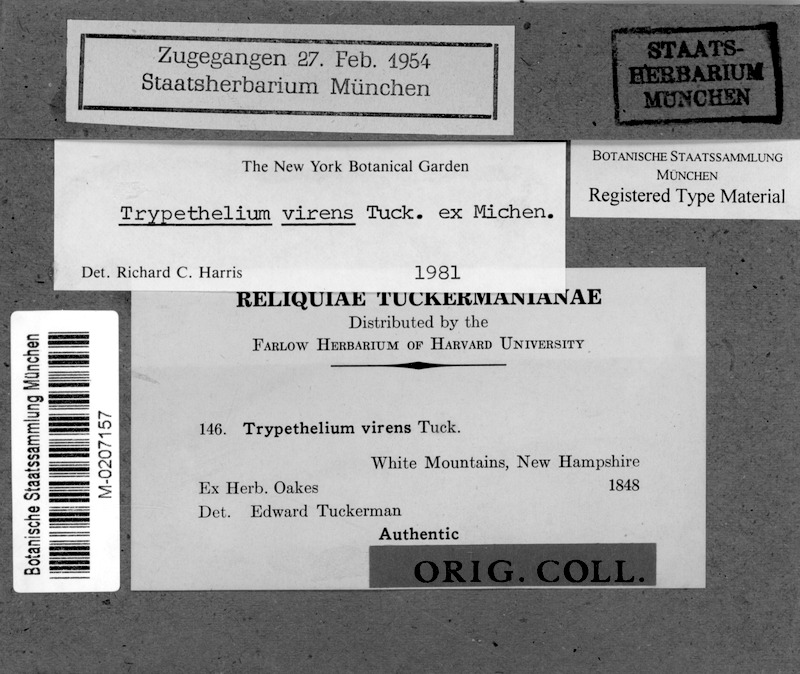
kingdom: Fungi
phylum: Ascomycota
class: Dothideomycetes
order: Trypetheliales
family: Trypetheliaceae
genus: Viridothelium
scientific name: Viridothelium virens
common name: Speckled blister lichen
